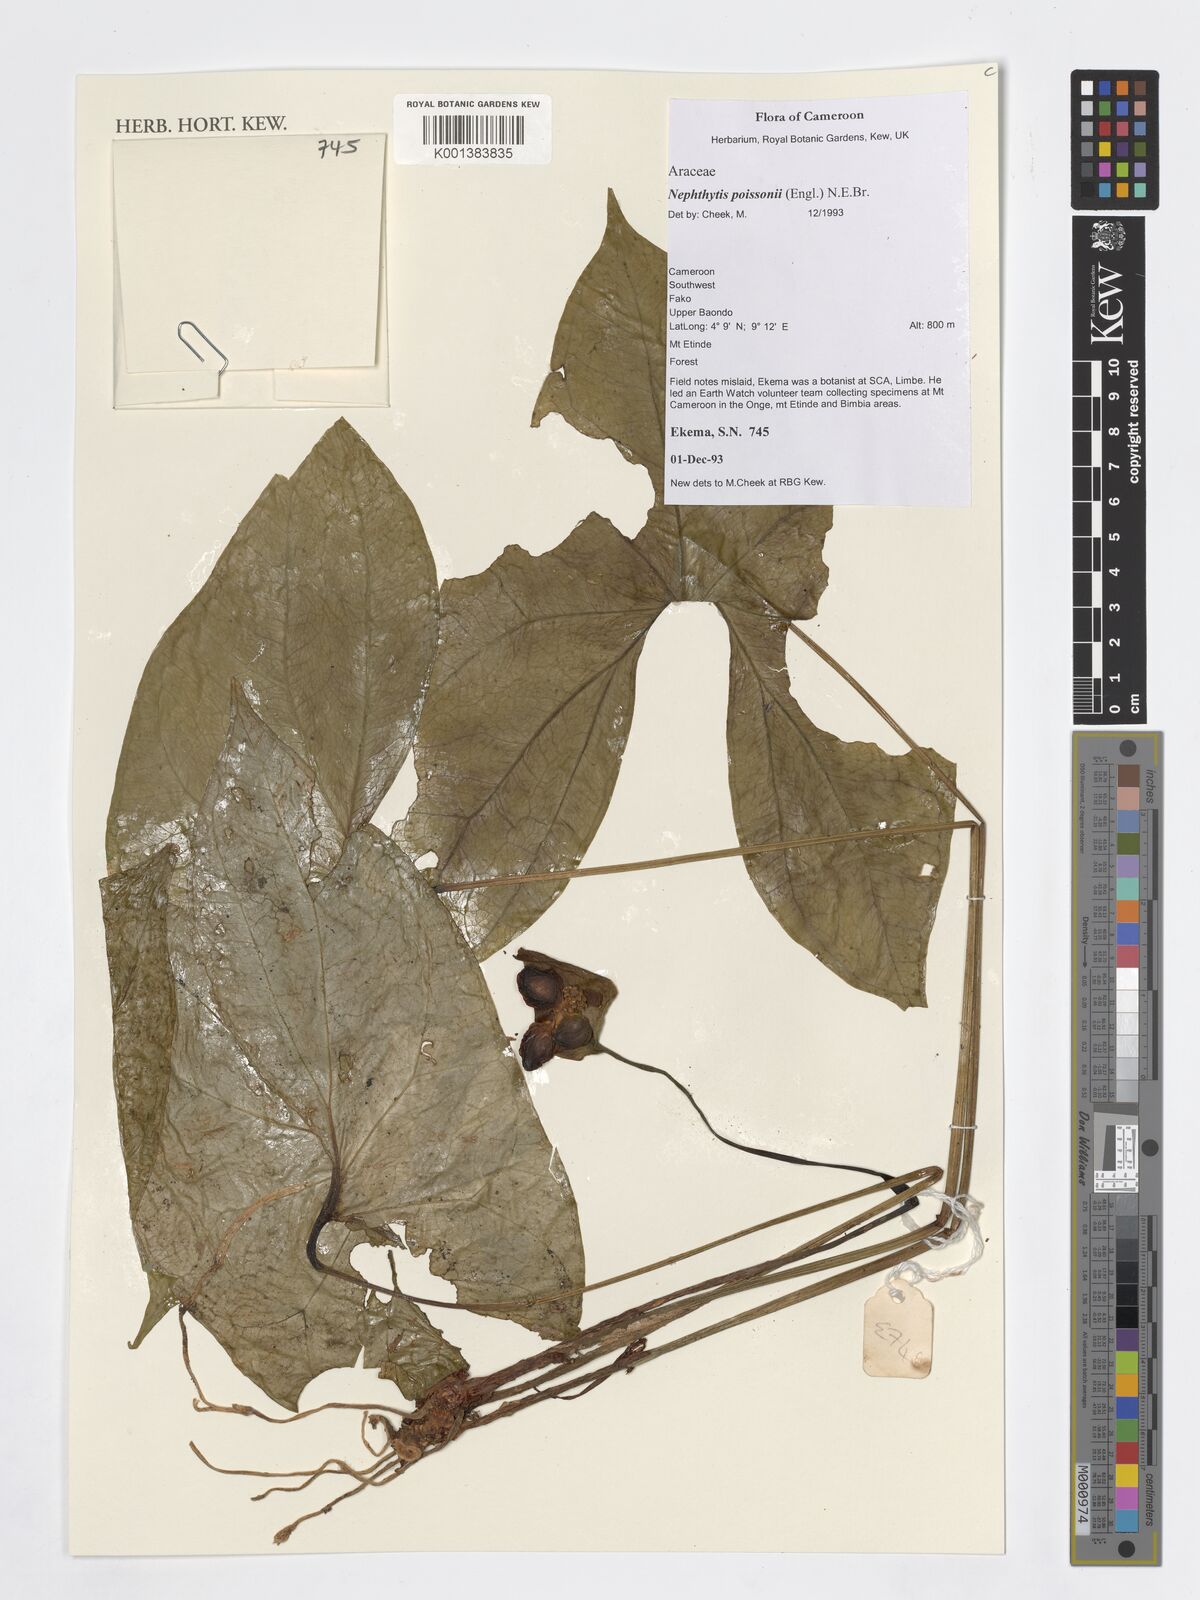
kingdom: Plantae
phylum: Tracheophyta
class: Liliopsida
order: Alismatales
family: Araceae
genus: Nephthytis
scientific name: Nephthytis poissonii
